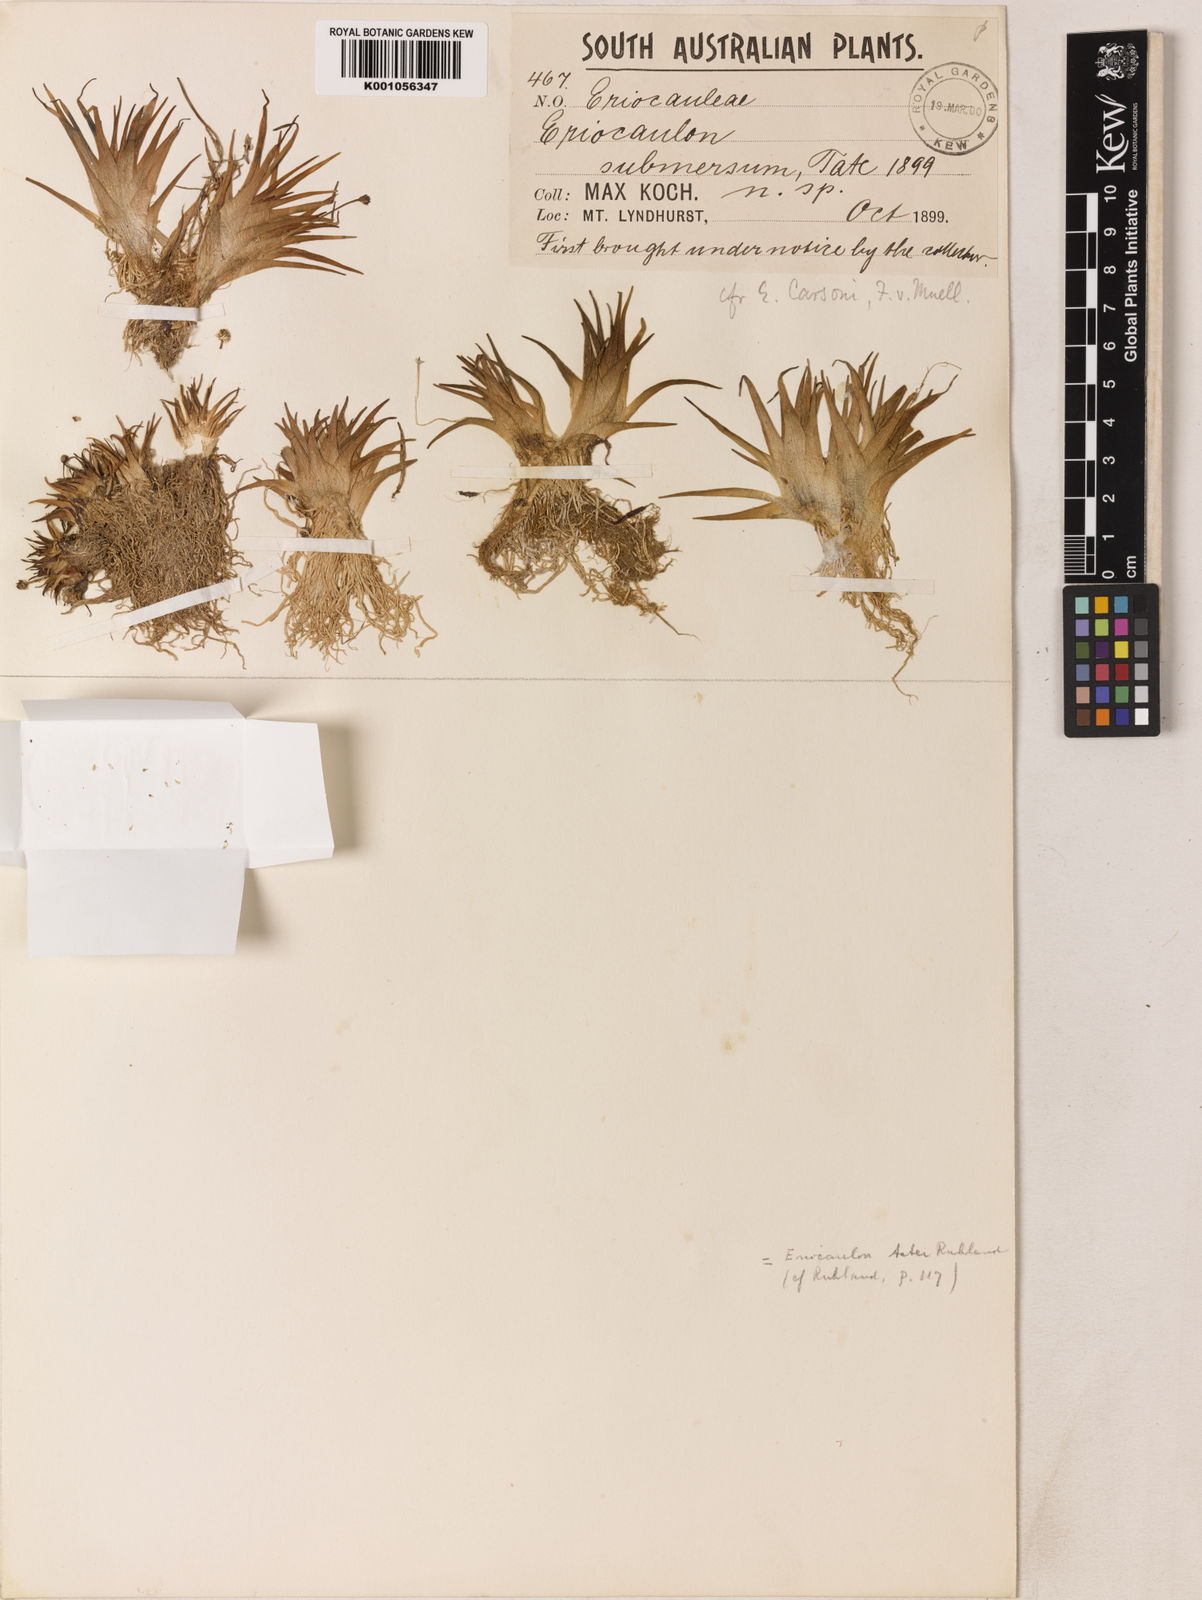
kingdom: Plantae
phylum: Tracheophyta
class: Liliopsida
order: Poales
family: Eriocaulaceae
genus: Eriocaulon
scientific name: Eriocaulon carsonii
